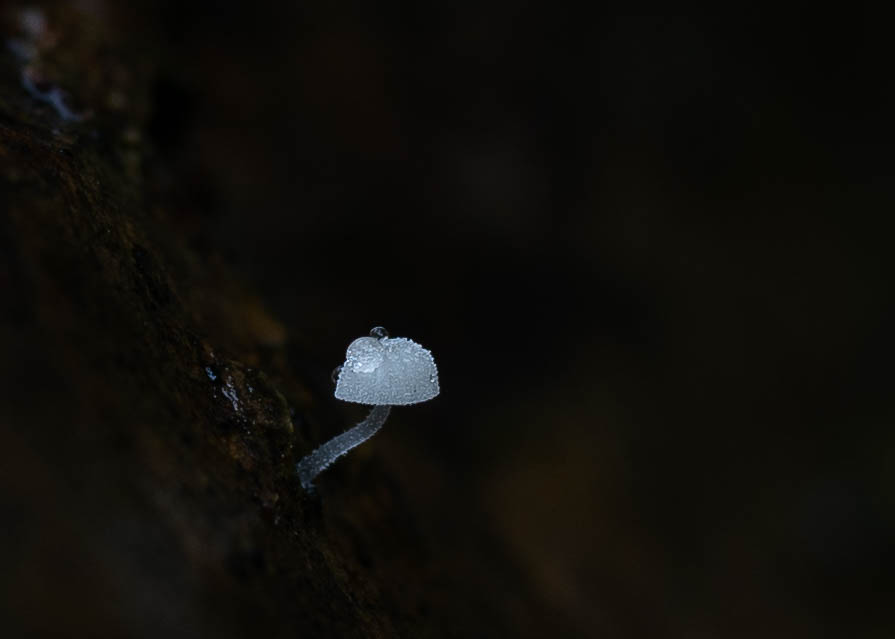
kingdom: Fungi
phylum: Basidiomycota
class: Agaricomycetes
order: Agaricales
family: Mycenaceae
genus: Mycena
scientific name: Mycena tenerrima
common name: pudret huesvamp
